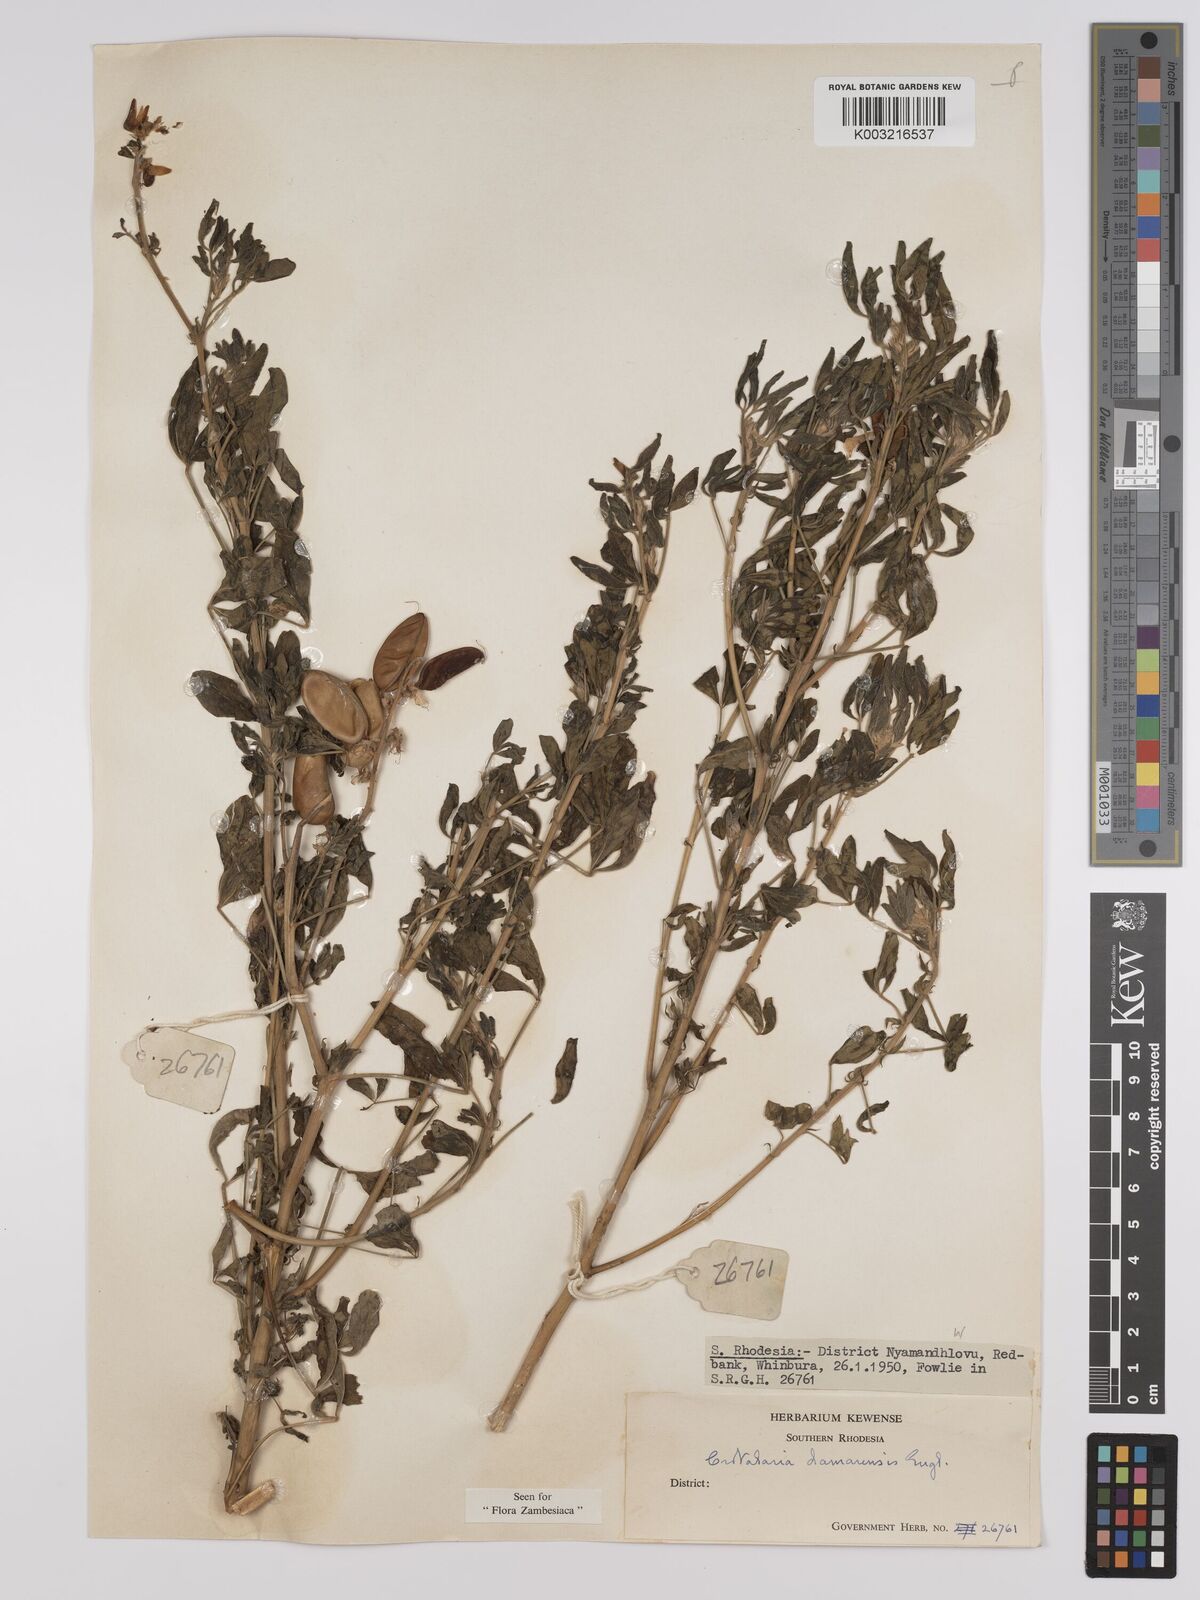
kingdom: Plantae
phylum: Tracheophyta
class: Magnoliopsida
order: Fabales
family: Fabaceae
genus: Crotalaria
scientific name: Crotalaria damarensis
